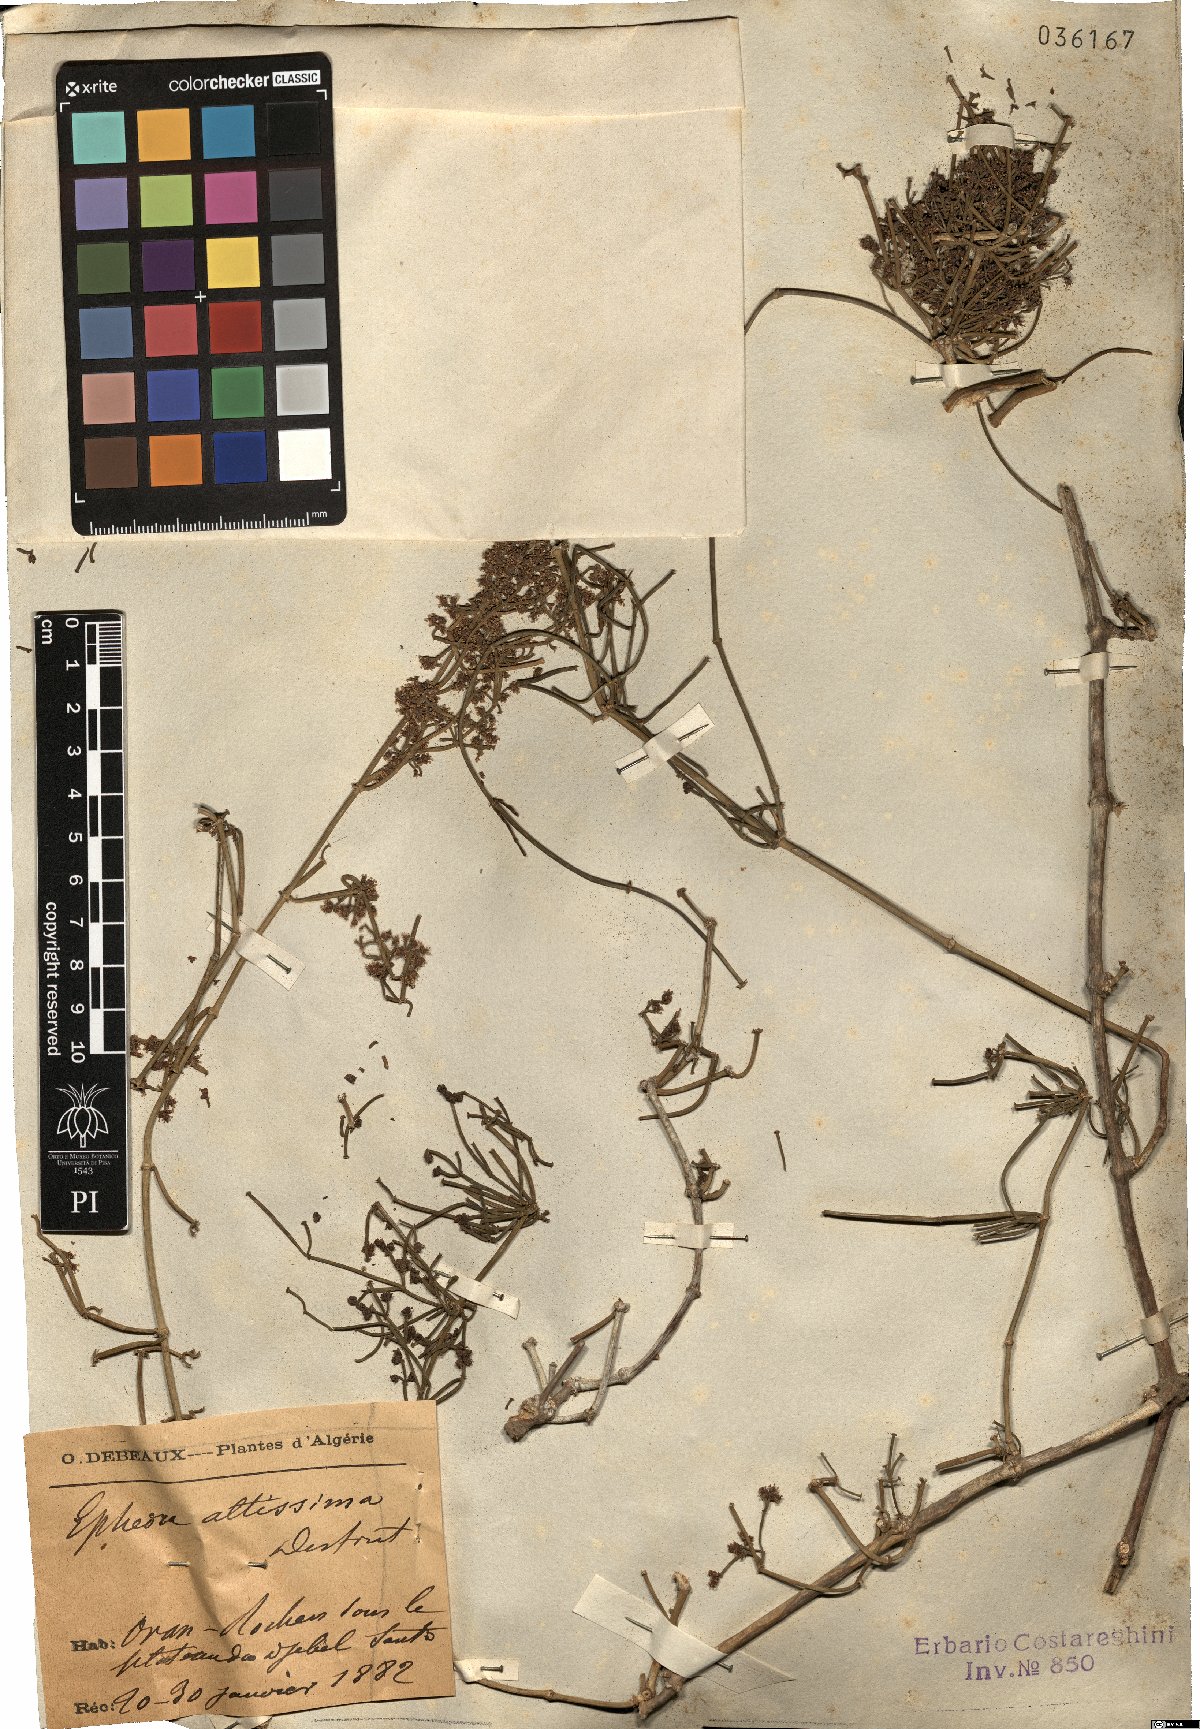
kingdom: Plantae
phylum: Tracheophyta
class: Gnetopsida
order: Ephedrales
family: Ephedraceae
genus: Ephedra
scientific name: Ephedra altissima
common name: High-climbing jointfir
